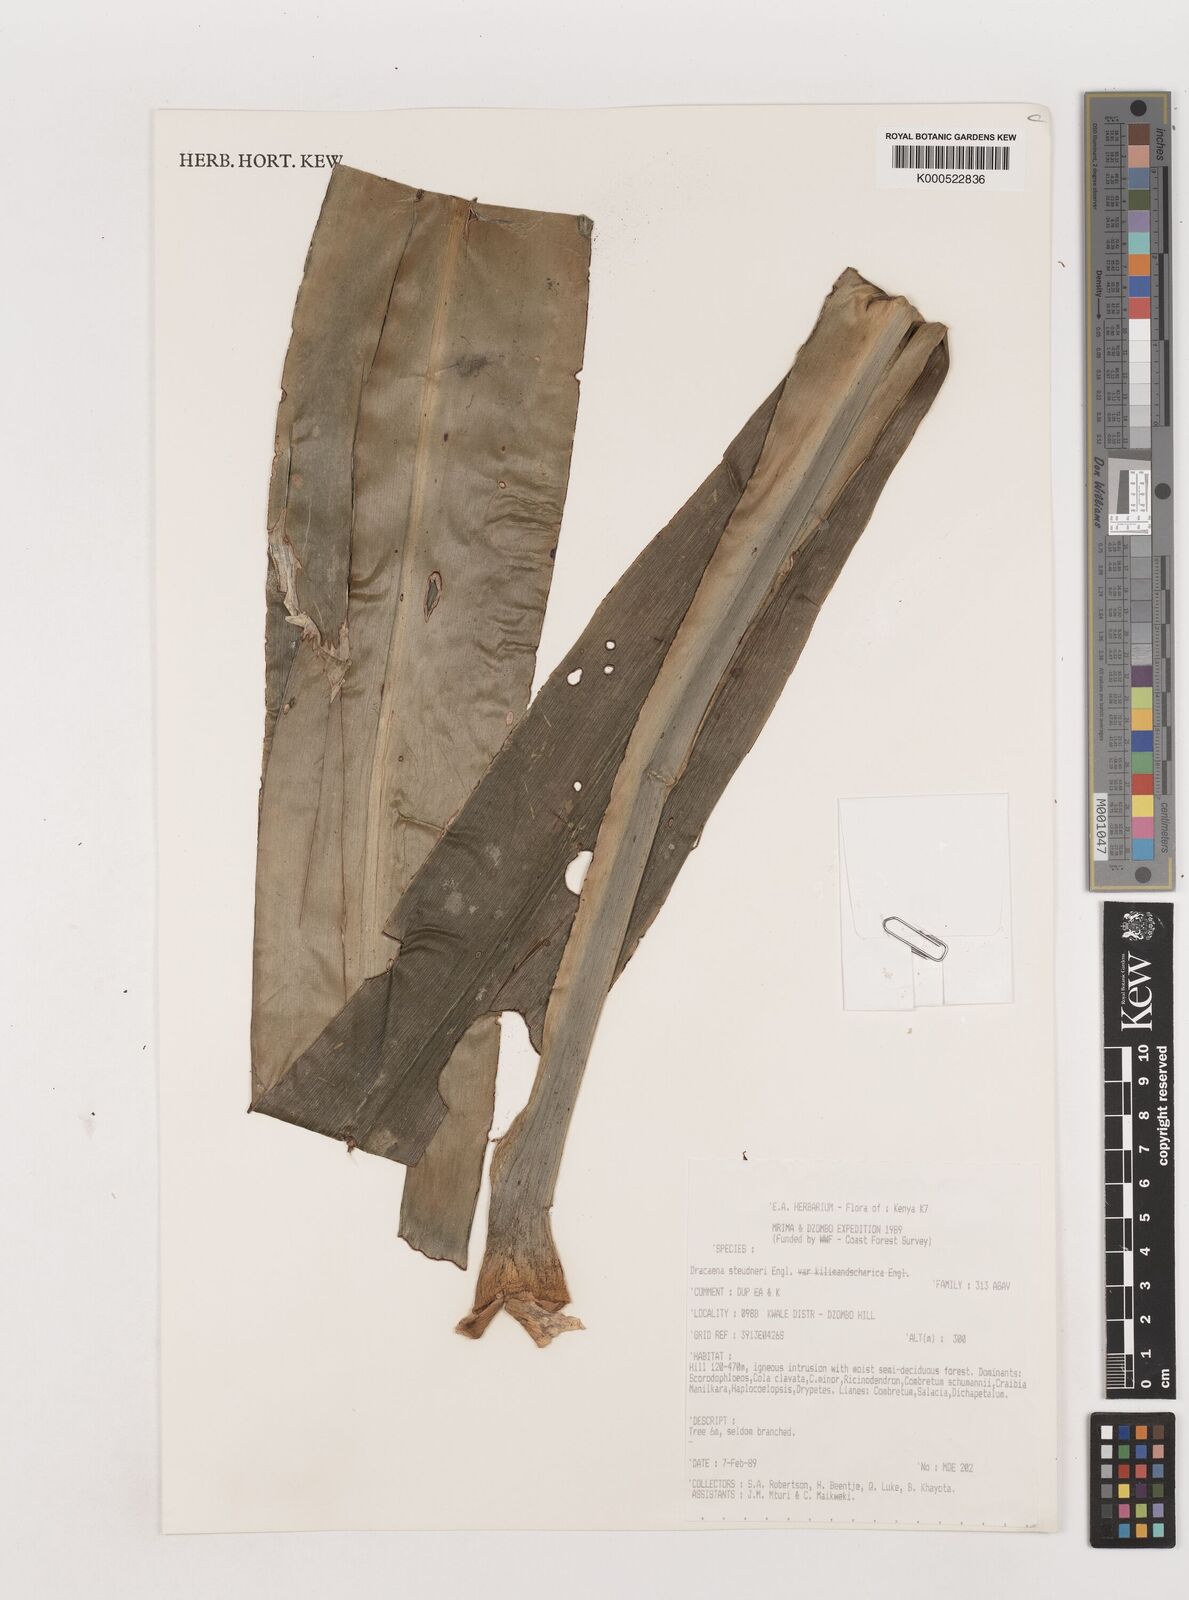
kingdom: Plantae
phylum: Tracheophyta
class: Liliopsida
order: Asparagales
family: Asparagaceae
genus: Dracaena
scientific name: Dracaena steudneri
